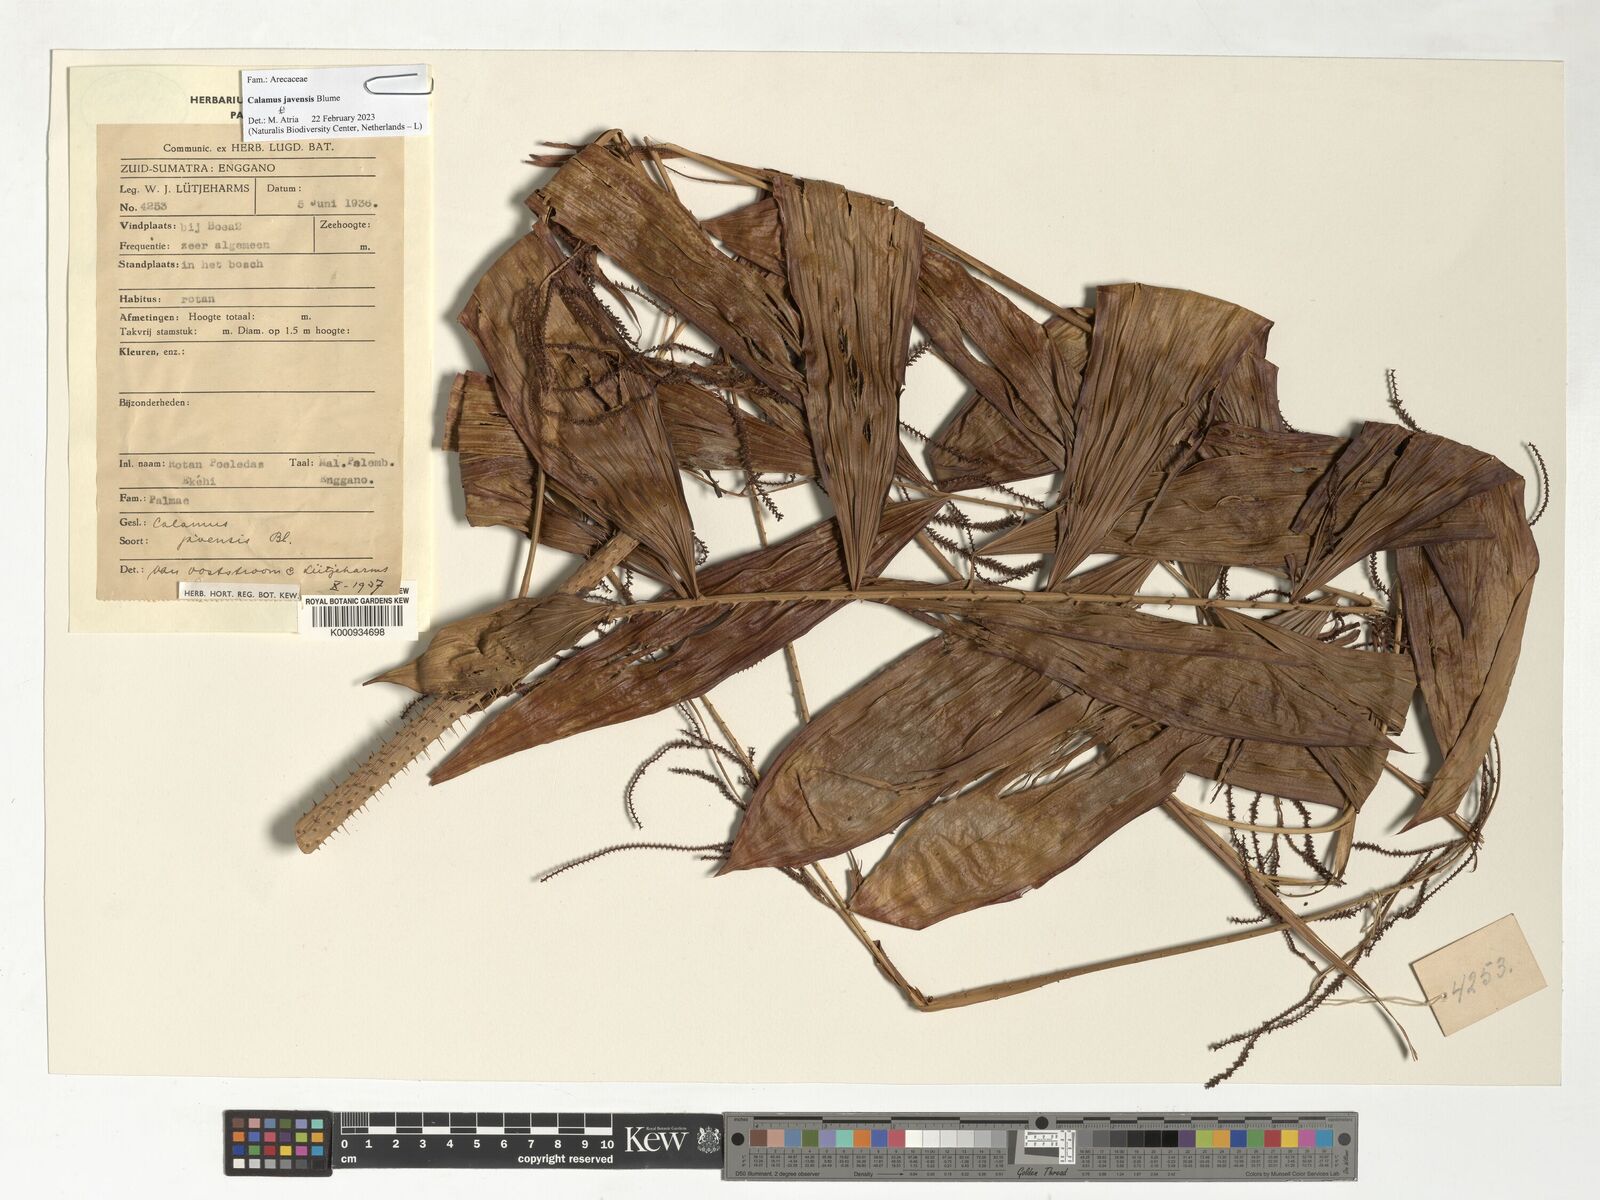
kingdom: Plantae
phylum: Tracheophyta
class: Liliopsida
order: Arecales
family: Arecaceae
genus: Calamus
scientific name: Calamus javensis
